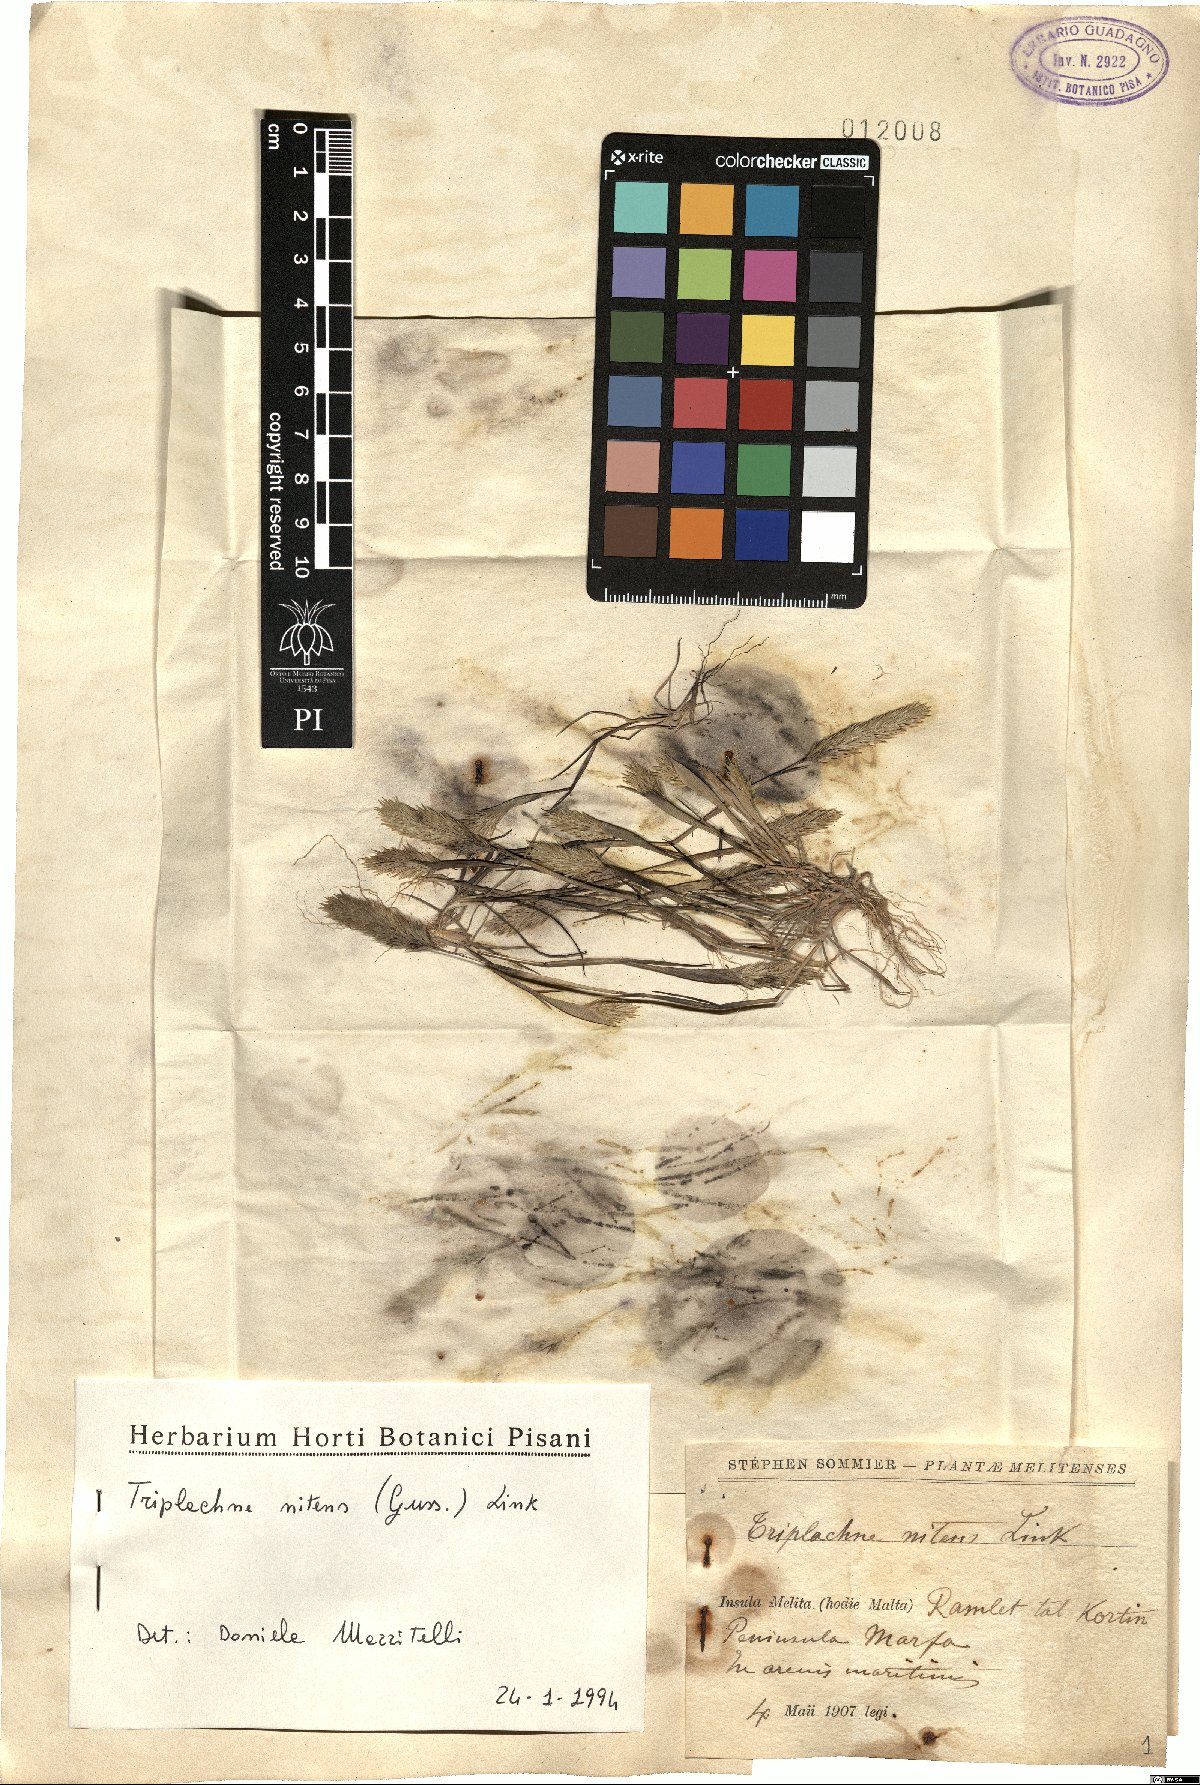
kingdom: Plantae
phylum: Tracheophyta
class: Liliopsida
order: Poales
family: Poaceae
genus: Triplachne
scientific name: Triplachne nitens
